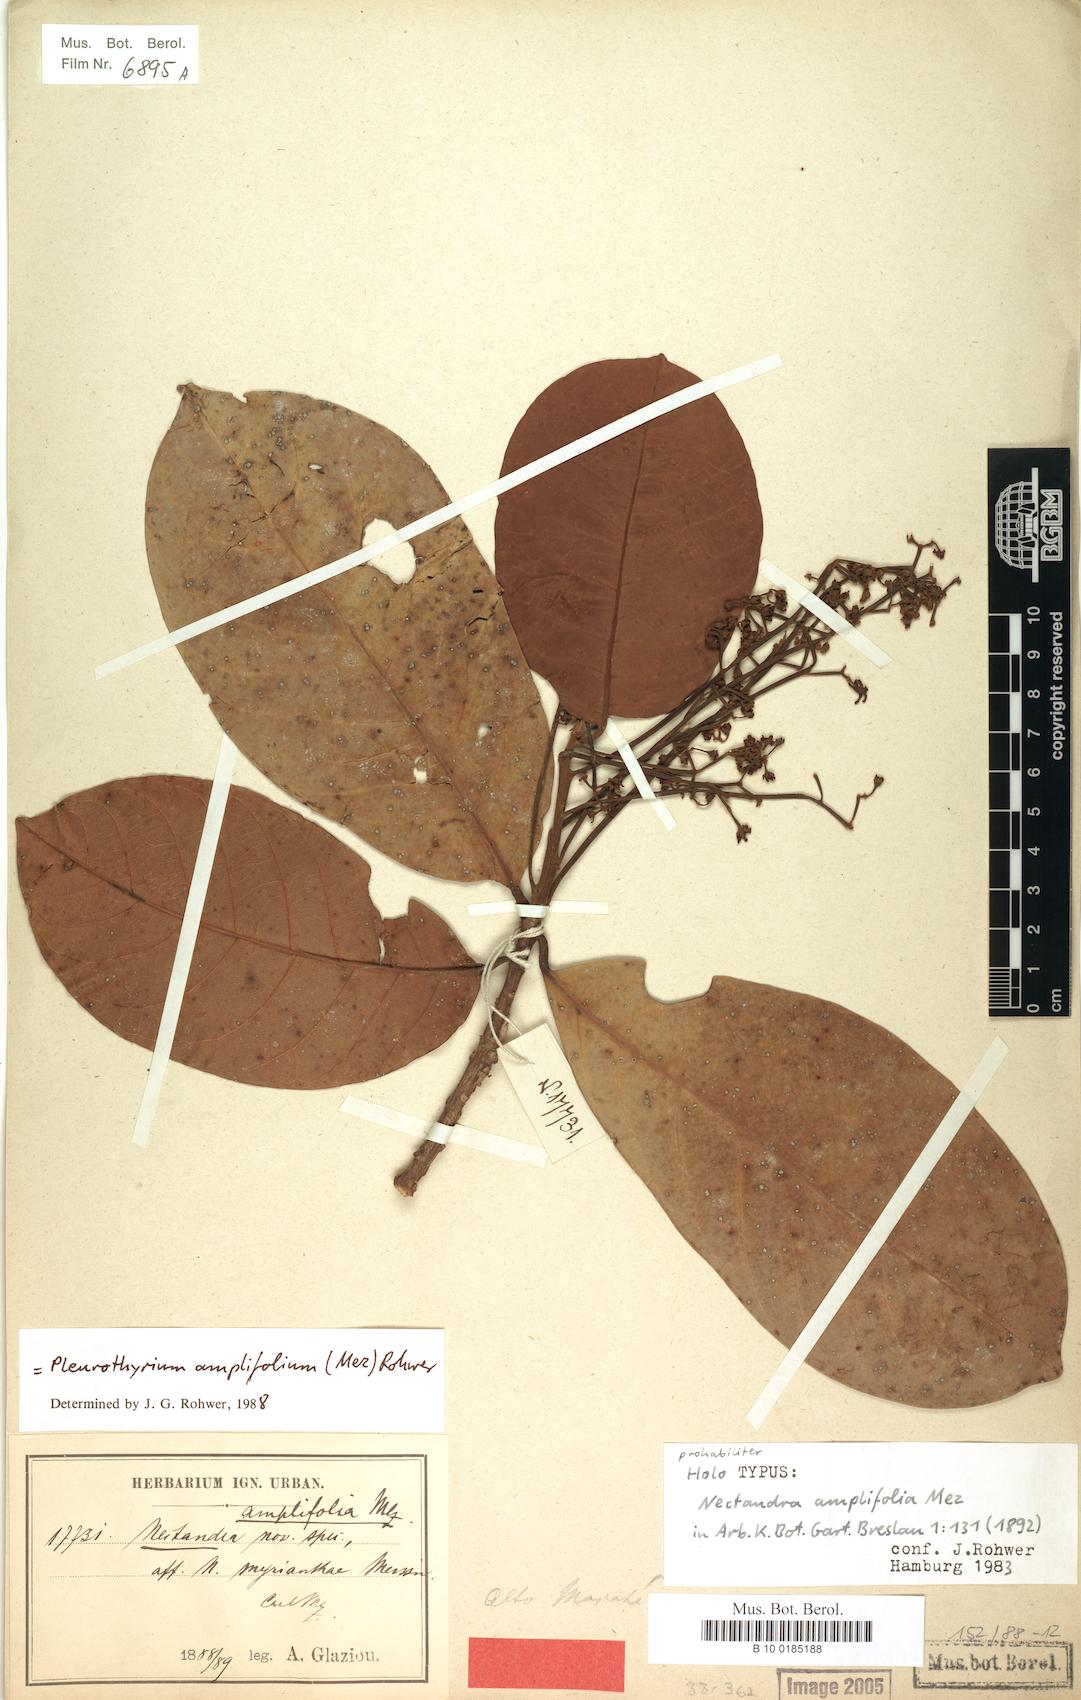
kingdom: Plantae
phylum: Tracheophyta
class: Magnoliopsida
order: Laurales
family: Lauraceae
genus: Pleurothyrium
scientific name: Pleurothyrium amplifolium
